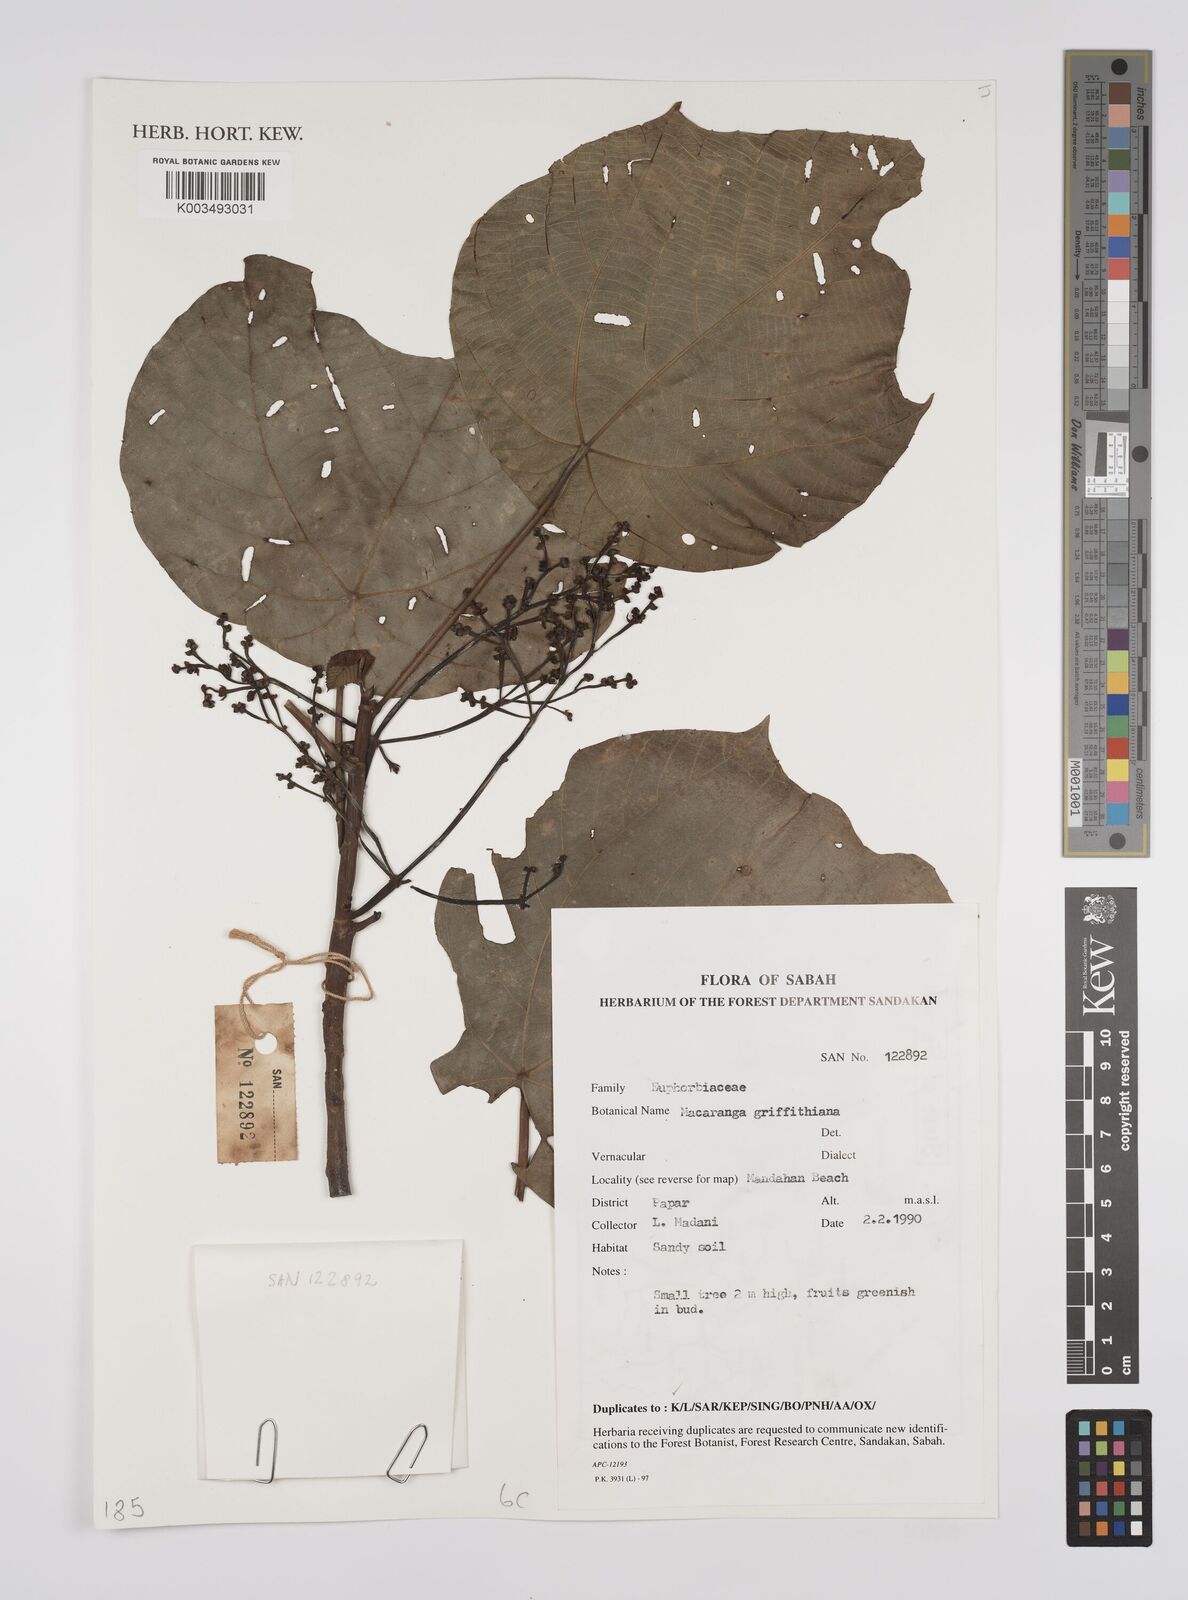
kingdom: Plantae
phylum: Tracheophyta
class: Magnoliopsida
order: Malpighiales
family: Euphorbiaceae
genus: Macaranga
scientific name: Macaranga griffithiana
